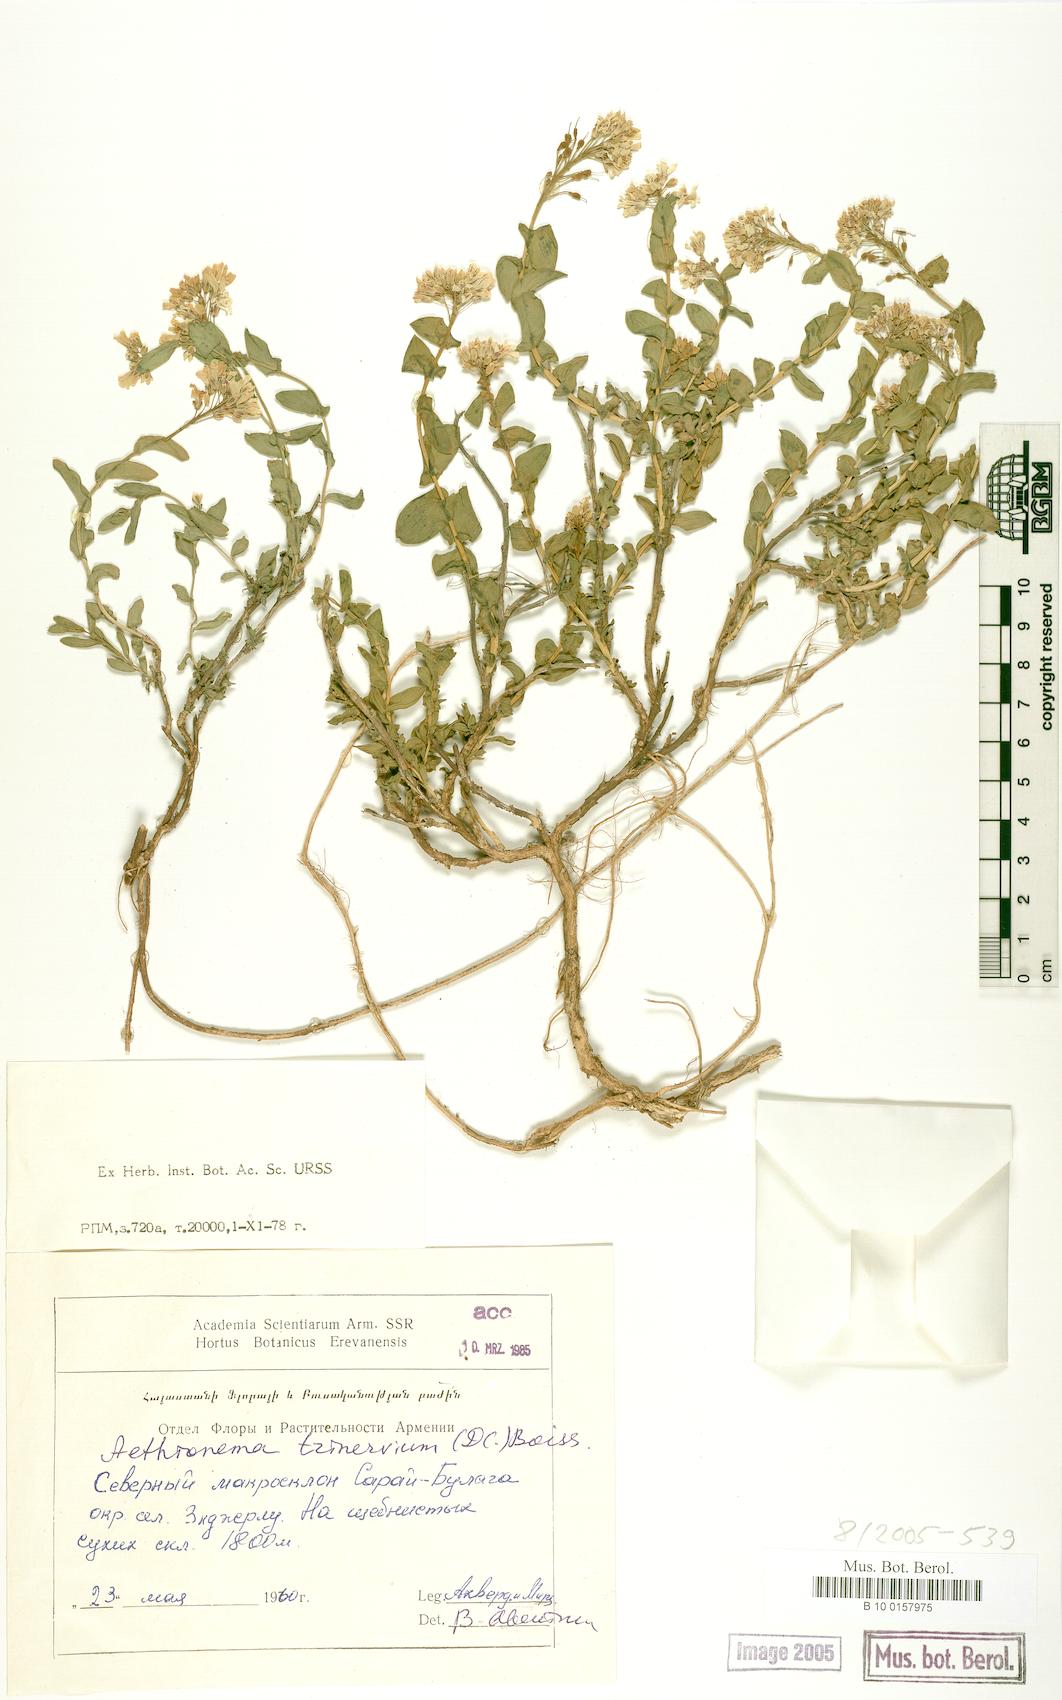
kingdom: Plantae
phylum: Tracheophyta
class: Magnoliopsida
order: Brassicales
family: Brassicaceae
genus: Noccaea
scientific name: Noccaea trinervia
